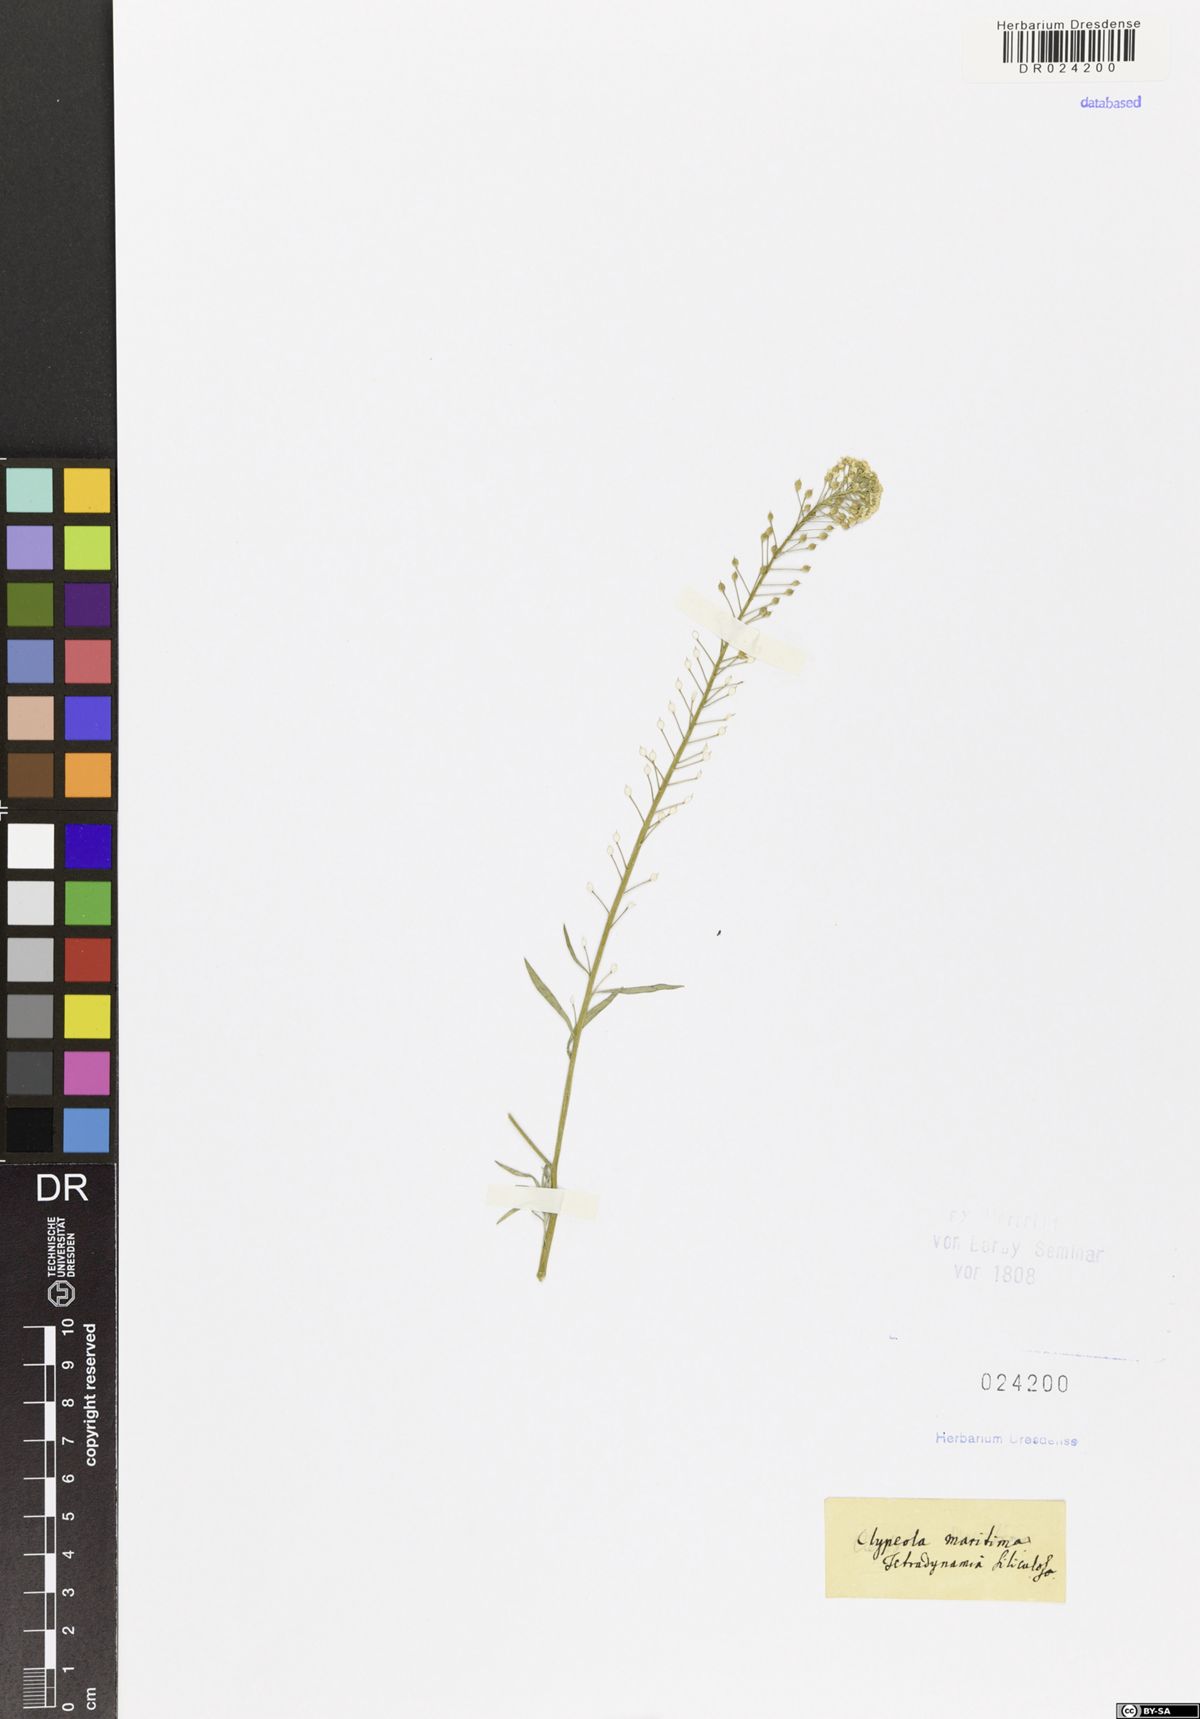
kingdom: Plantae
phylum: Tracheophyta
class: Magnoliopsida
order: Brassicales
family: Brassicaceae
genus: Lobularia
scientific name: Lobularia maritima
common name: Sweet alison
